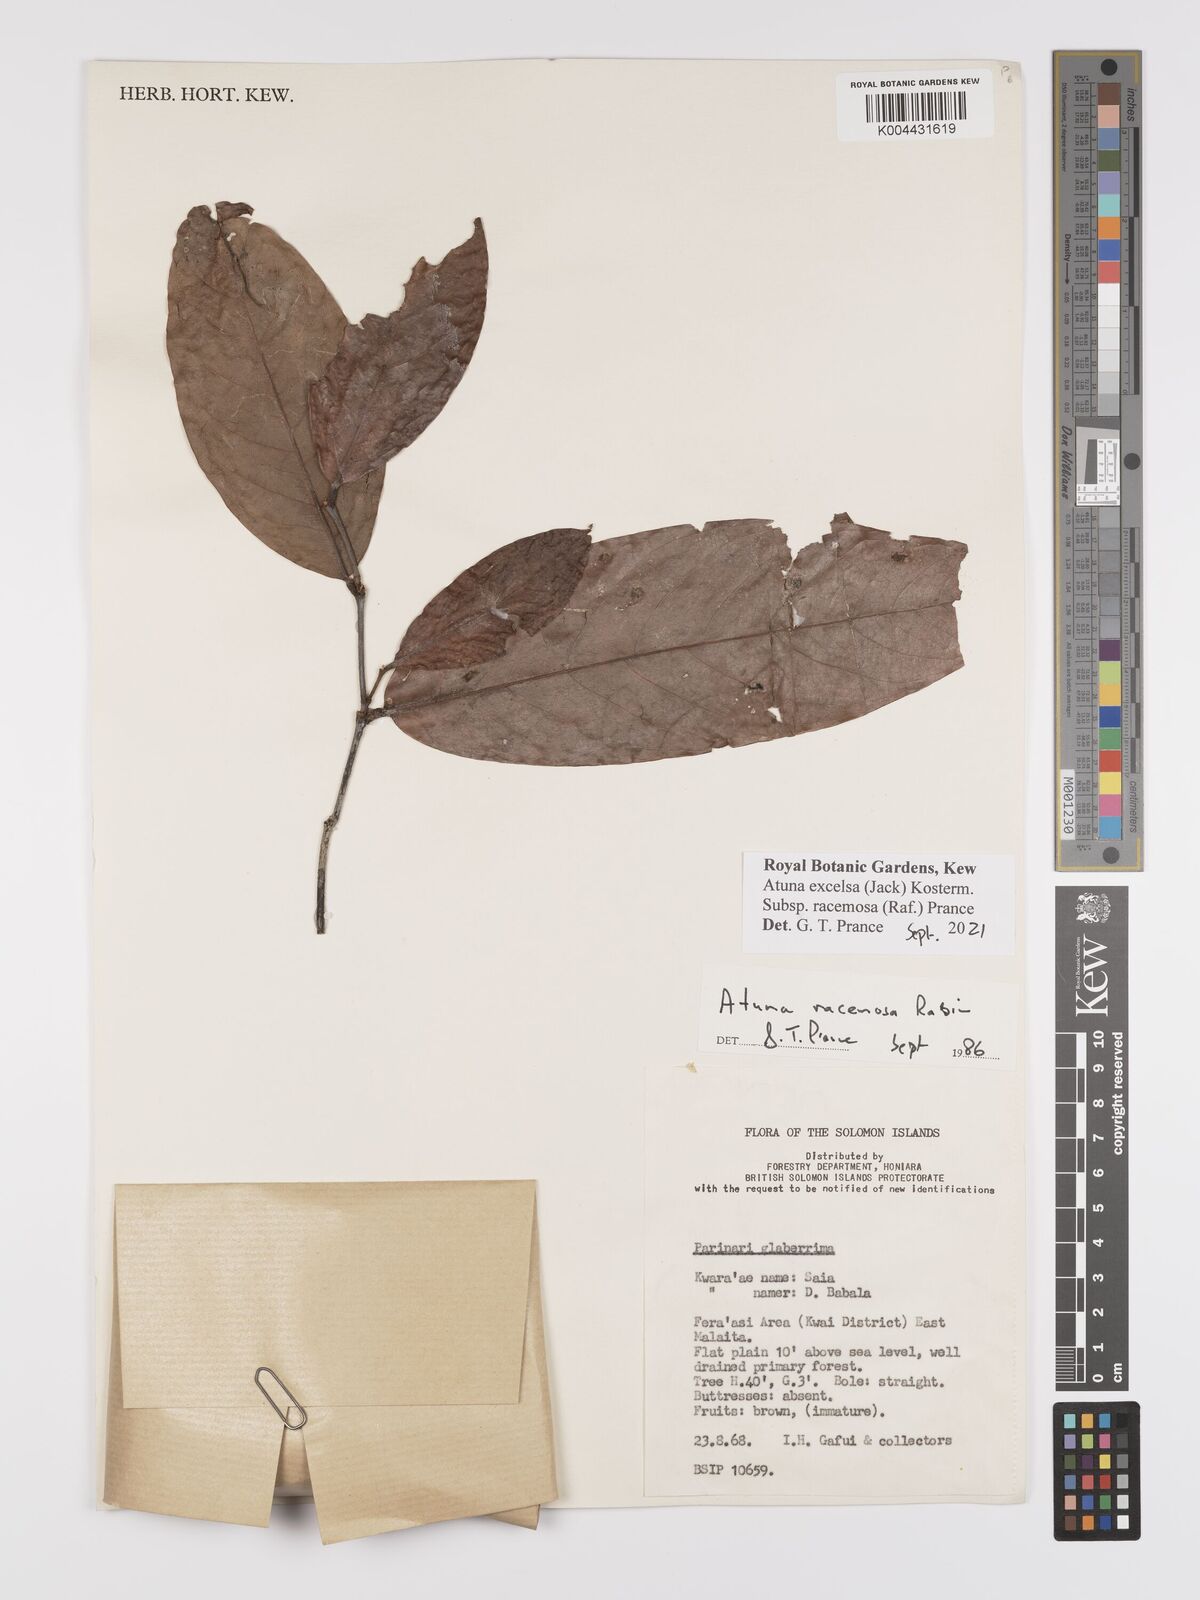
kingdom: Plantae
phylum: Tracheophyta
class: Magnoliopsida
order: Malpighiales
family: Chrysobalanaceae
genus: Atuna
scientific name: Atuna
